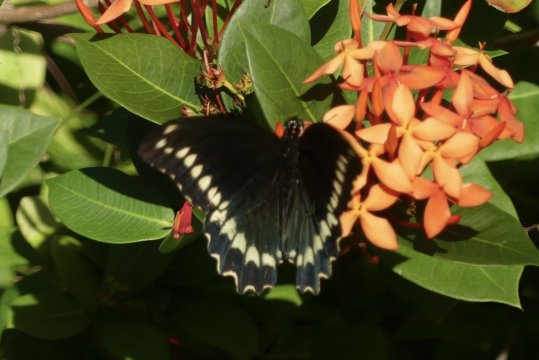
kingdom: Animalia
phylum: Arthropoda
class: Insecta
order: Lepidoptera
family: Papilionidae
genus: Battus
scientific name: Battus polydamas
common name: Polydamas Swallowtail
